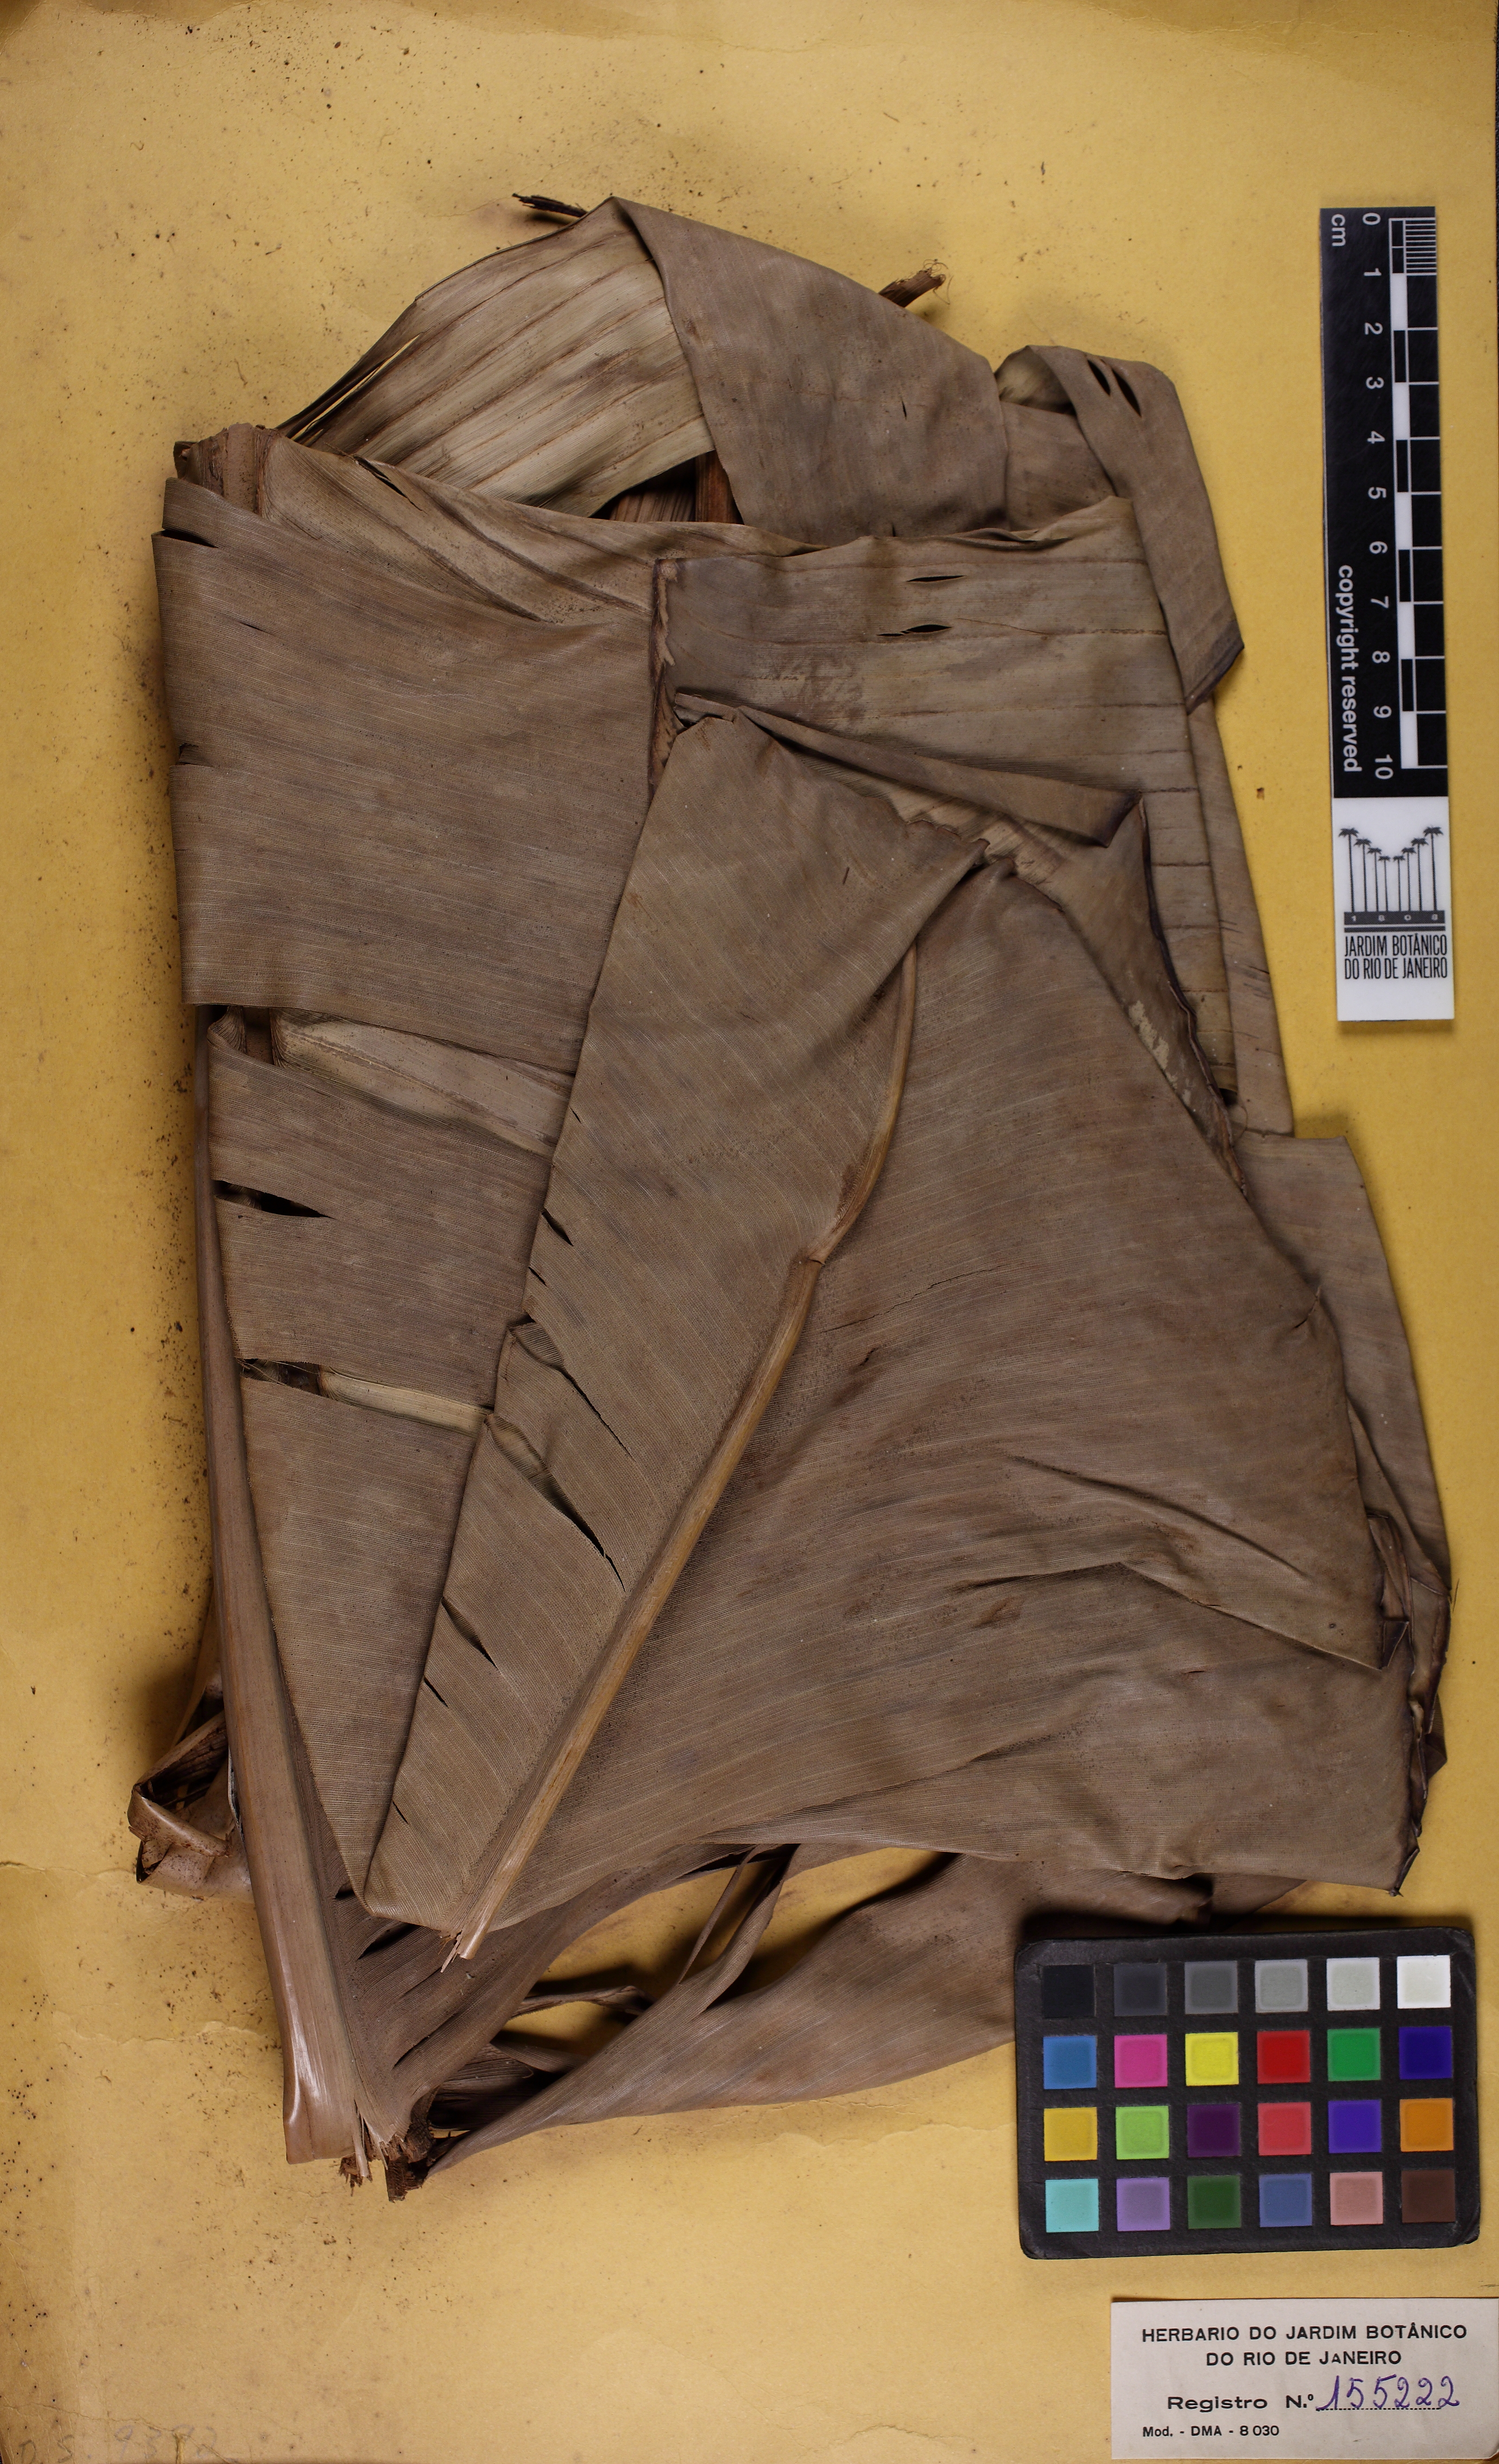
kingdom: Plantae
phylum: Tracheophyta
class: Liliopsida
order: Zingiberales
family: Strelitziaceae
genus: Phenakospermum
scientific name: Phenakospermum guyannense
